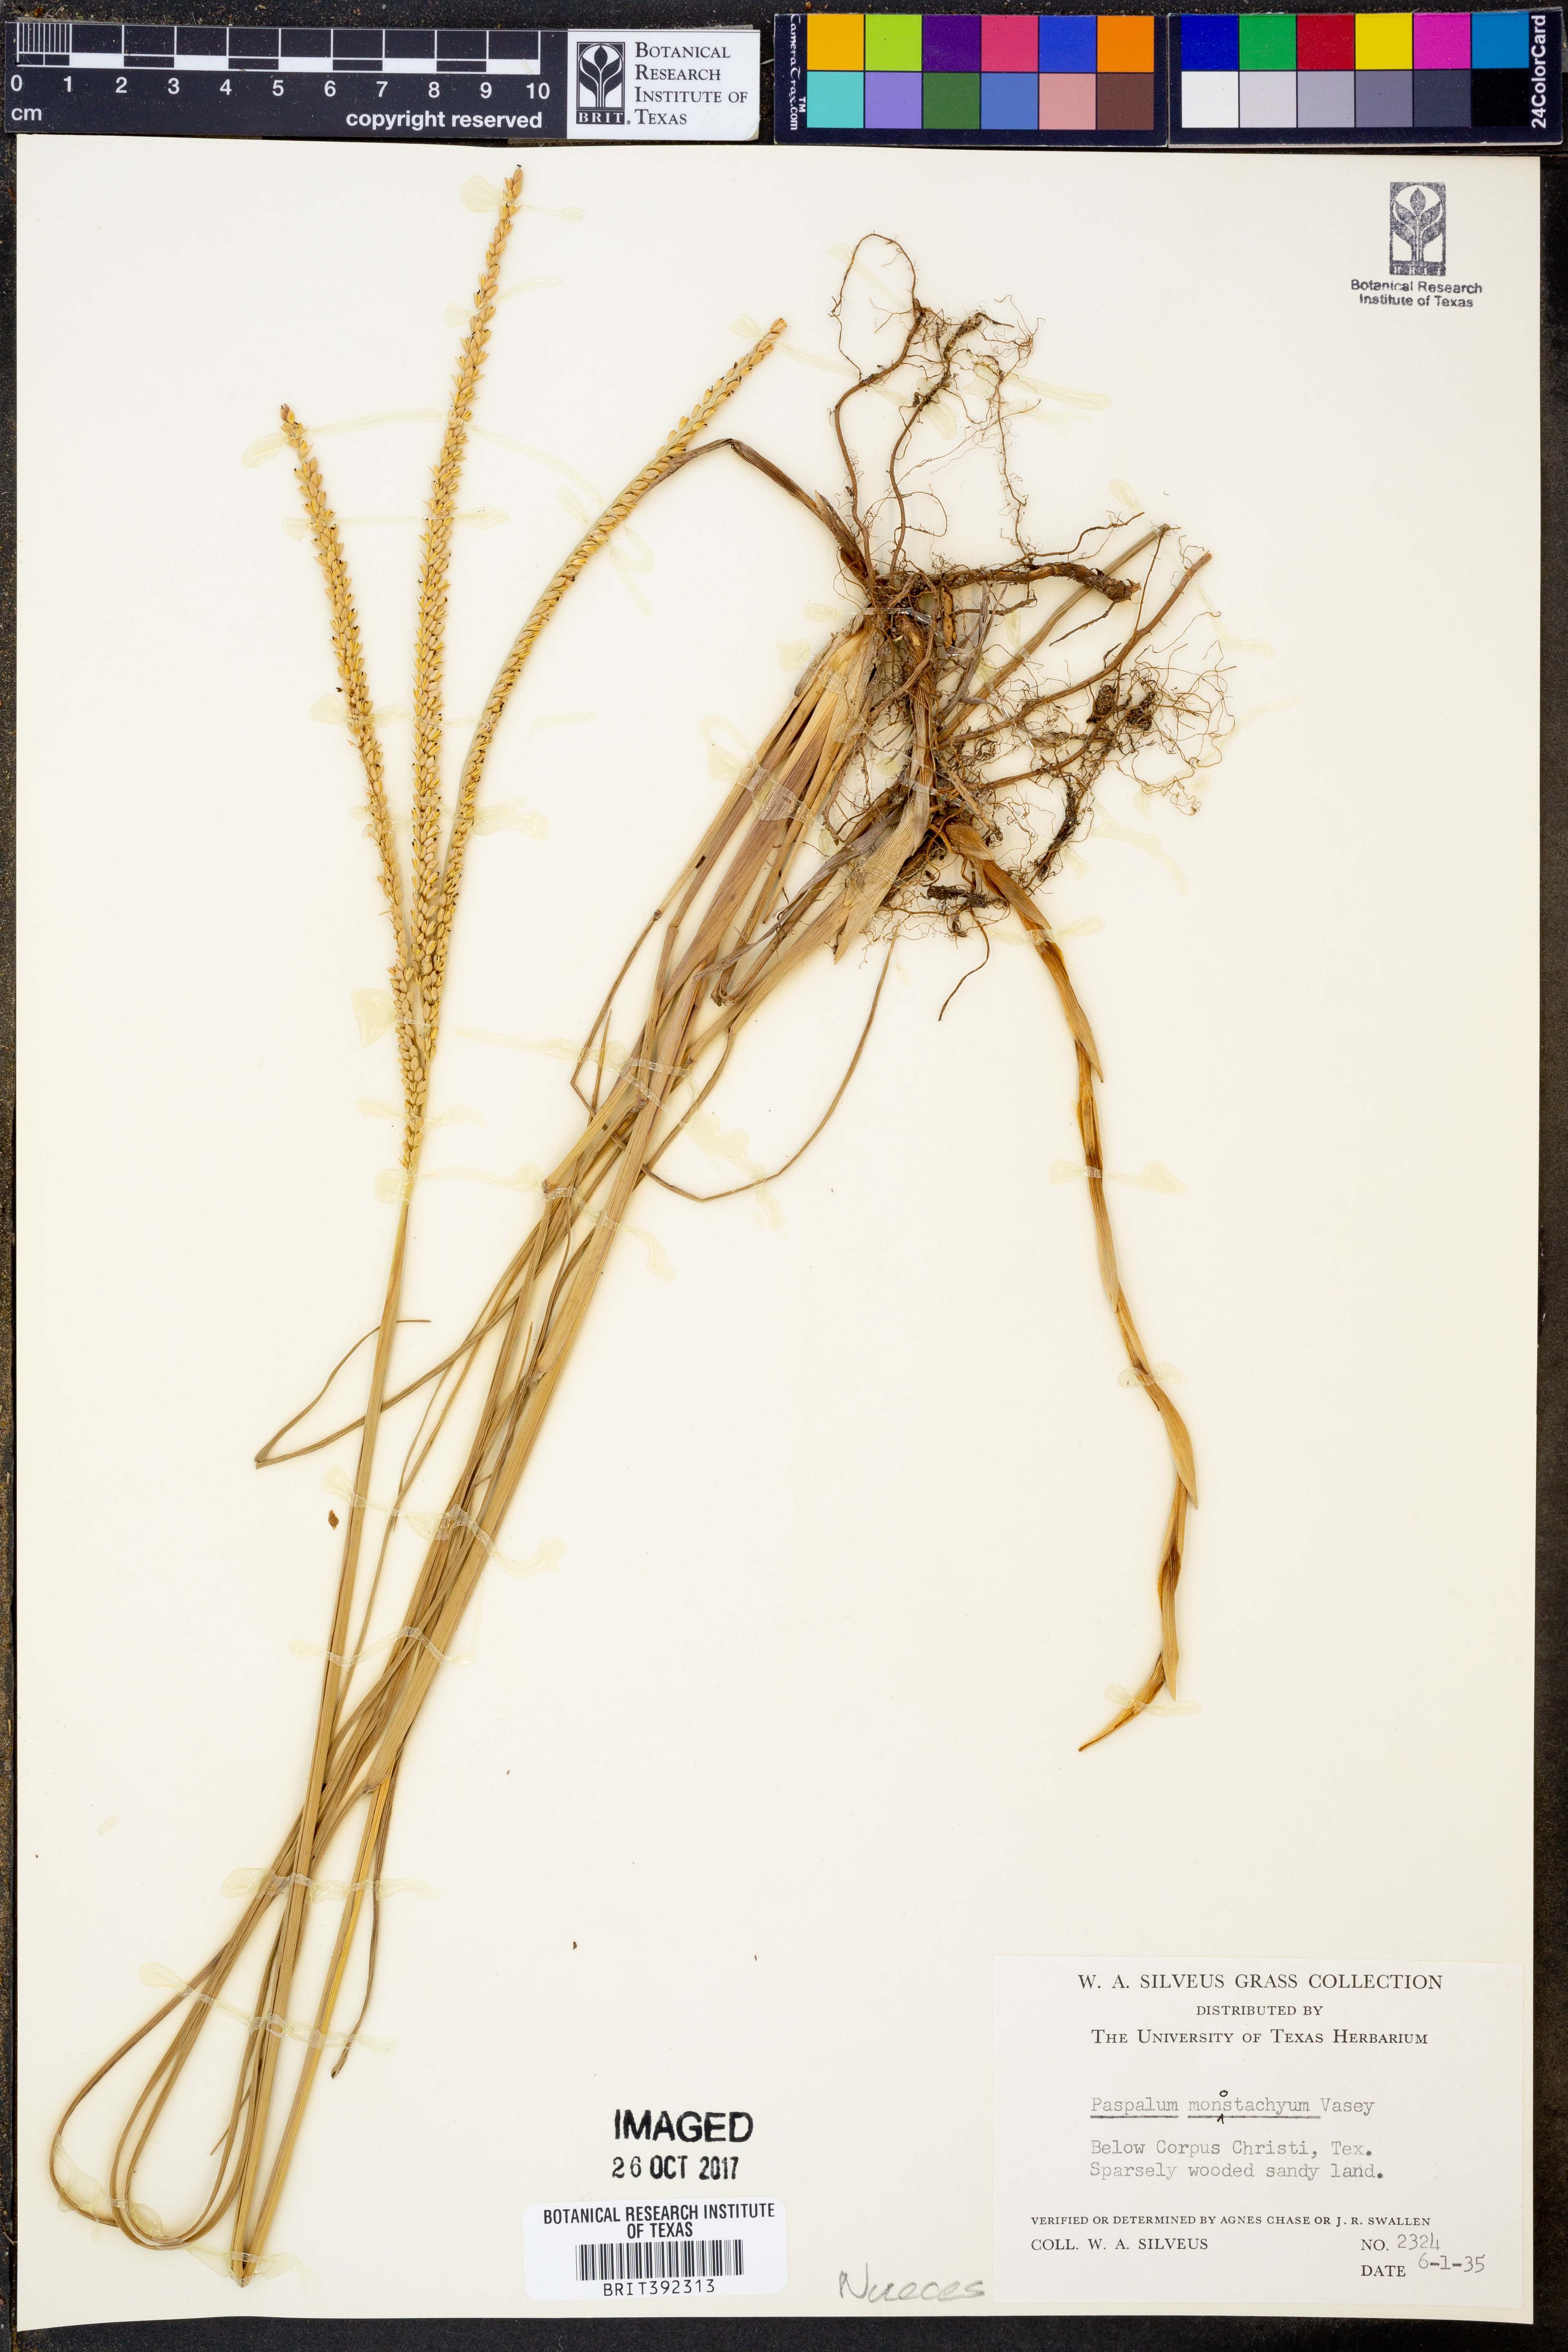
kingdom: Plantae
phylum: Tracheophyta
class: Liliopsida
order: Poales
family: Poaceae
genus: Paspalum
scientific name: Paspalum monostachyum
